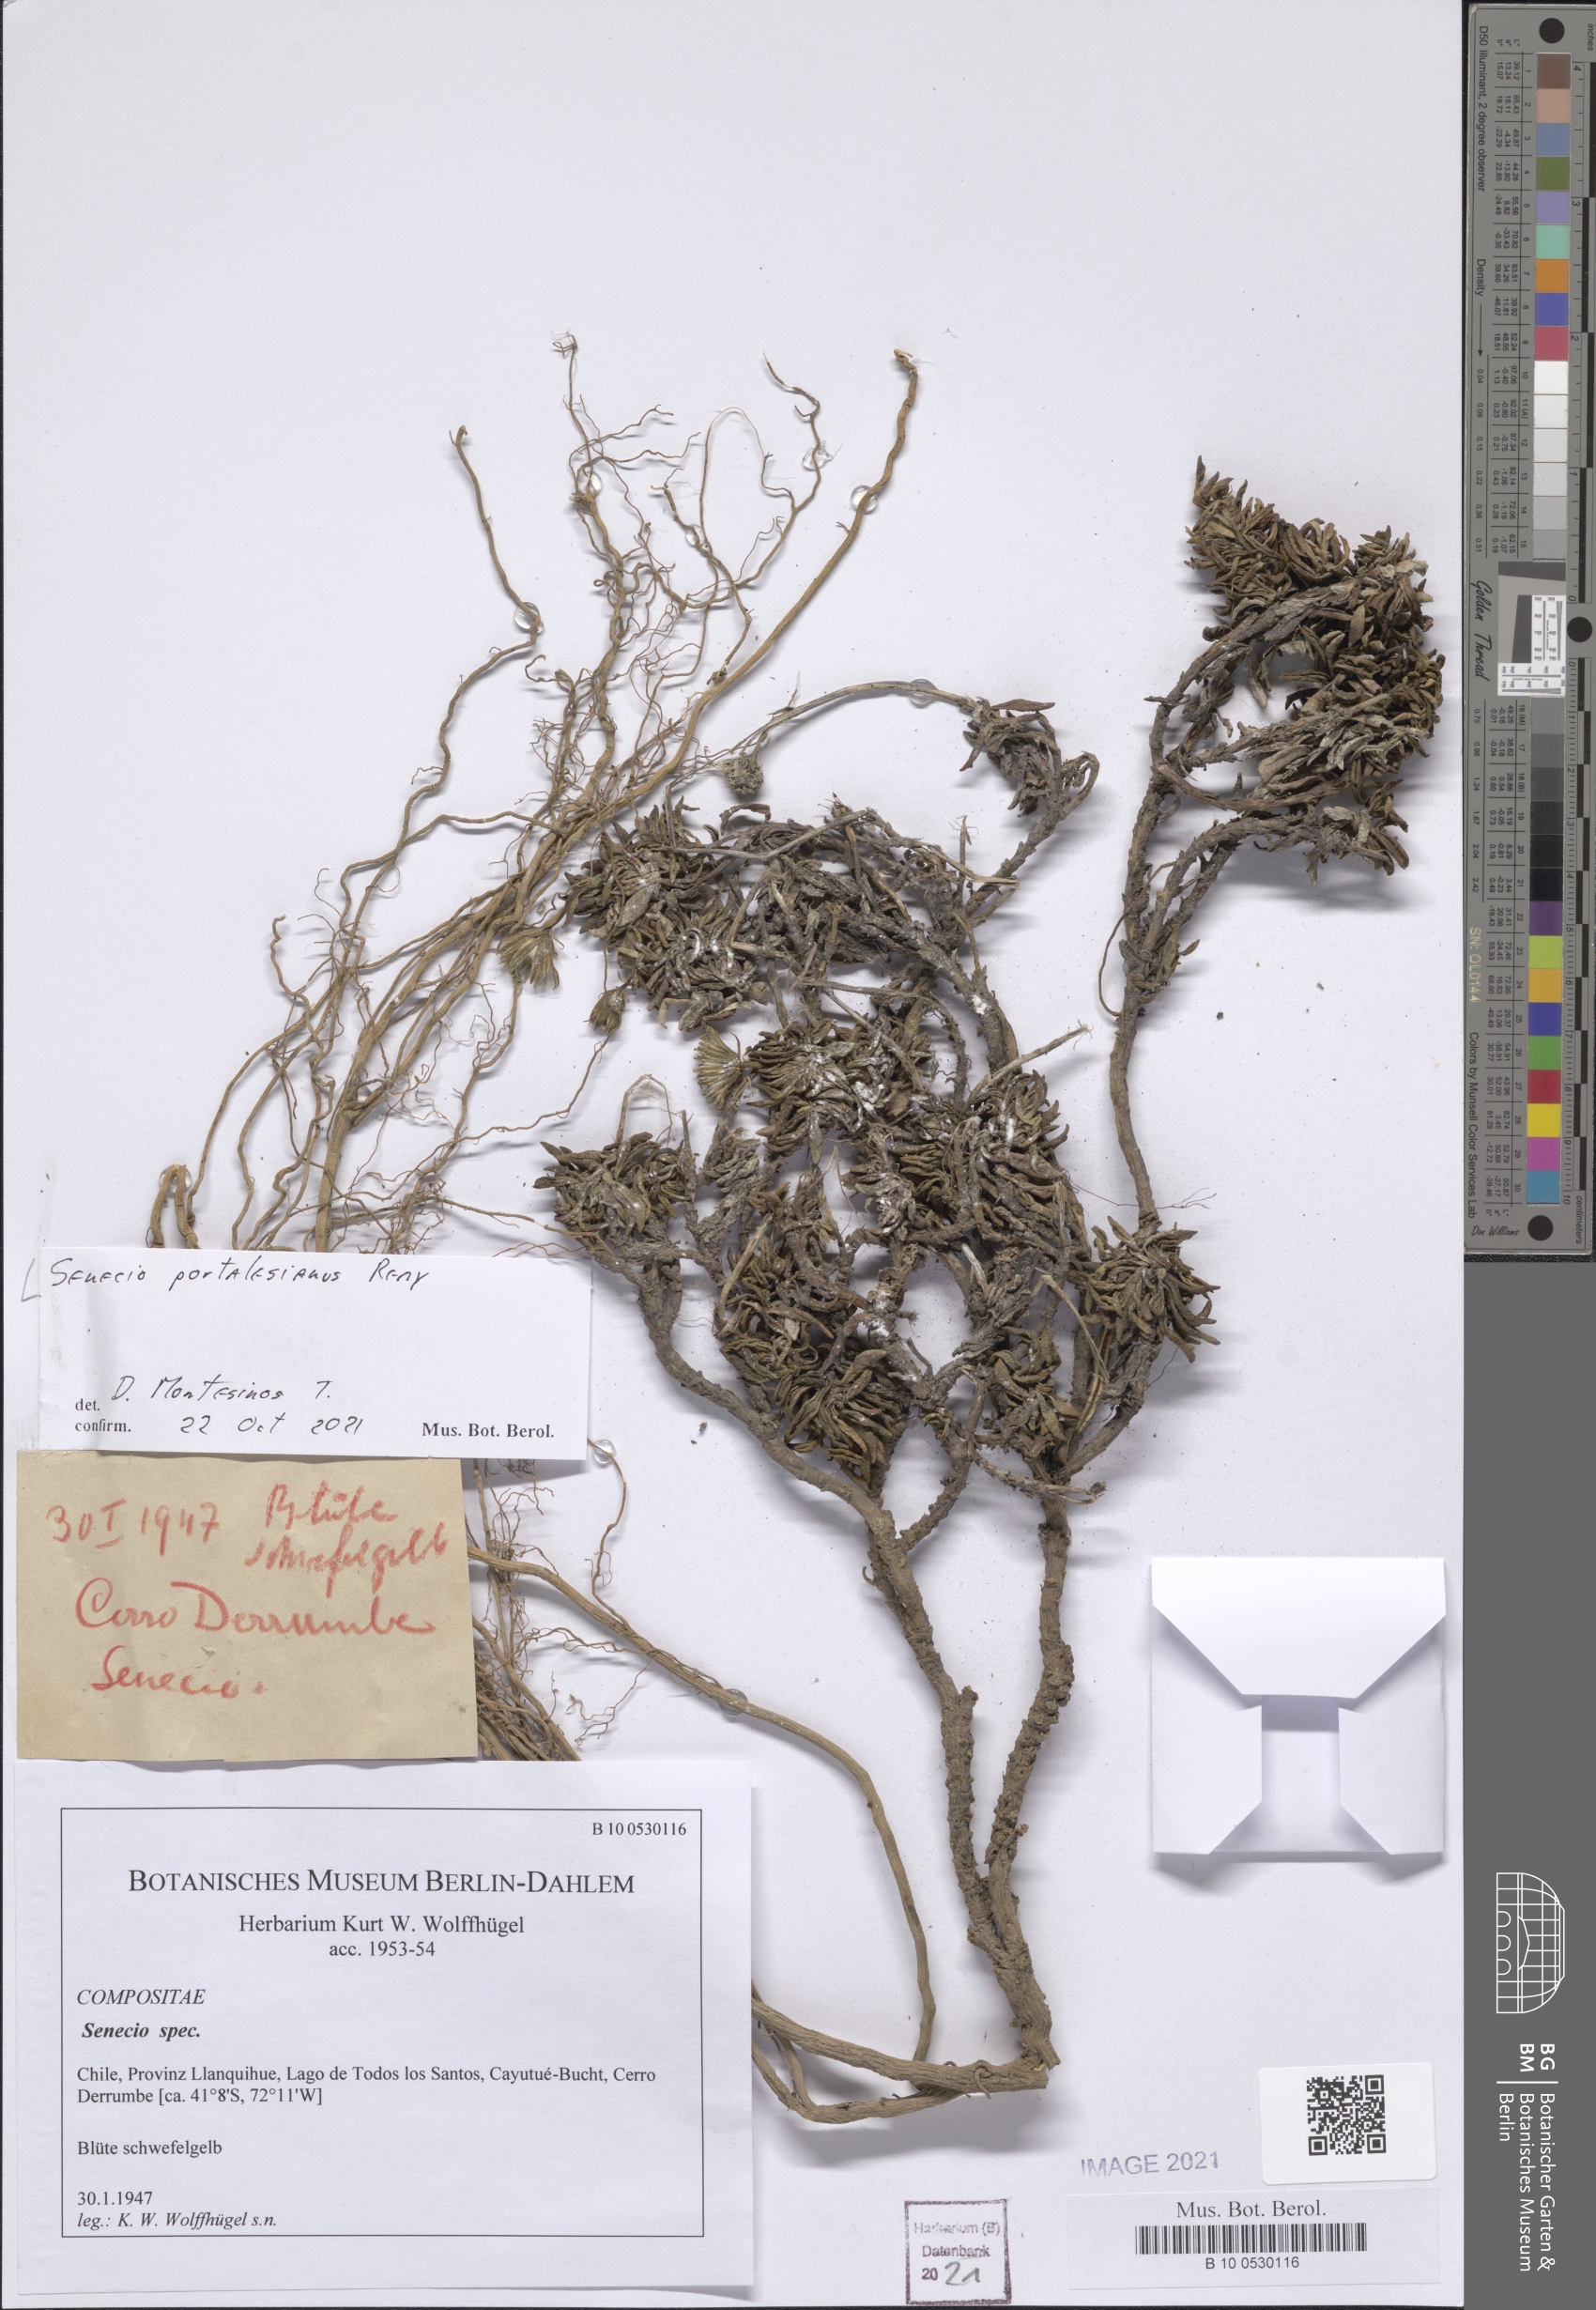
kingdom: Plantae
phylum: Tracheophyta
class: Magnoliopsida
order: Asterales
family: Asteraceae
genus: Senecio
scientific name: Senecio portalesianus
